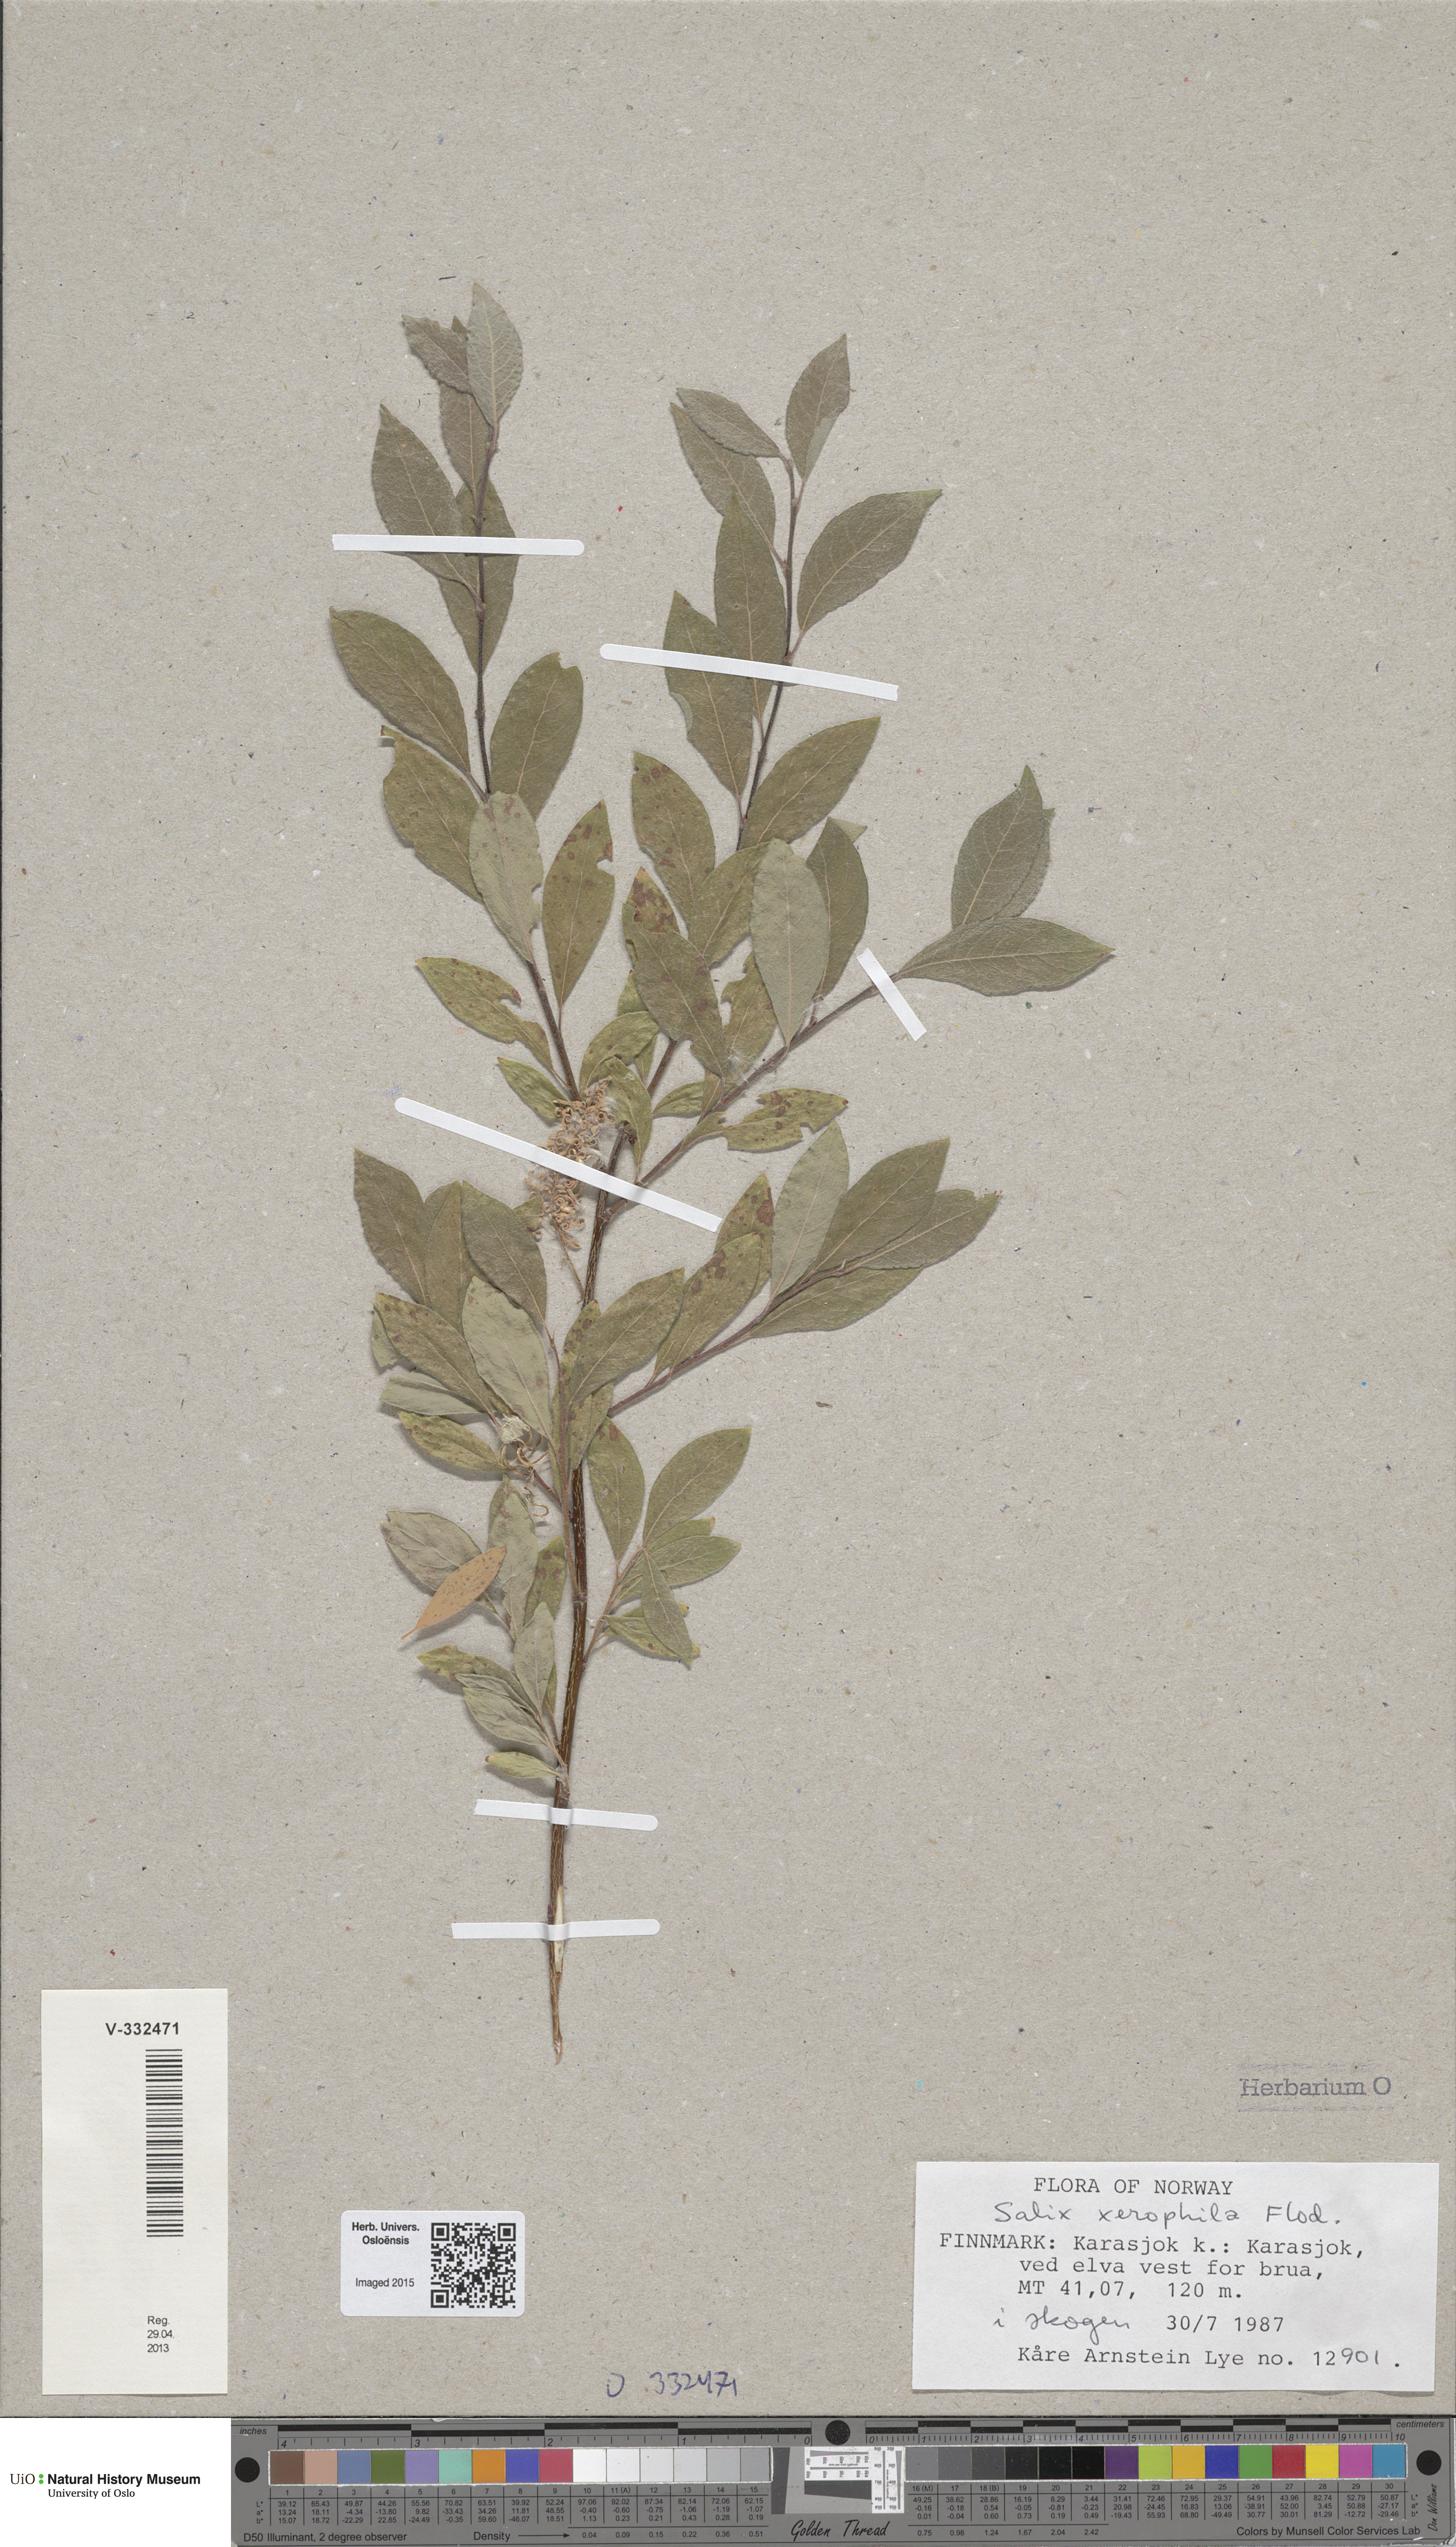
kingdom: Plantae
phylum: Tracheophyta
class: Magnoliopsida
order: Malpighiales
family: Salicaceae
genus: Salix
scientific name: Salix bebbiana
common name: Bebb's willow
